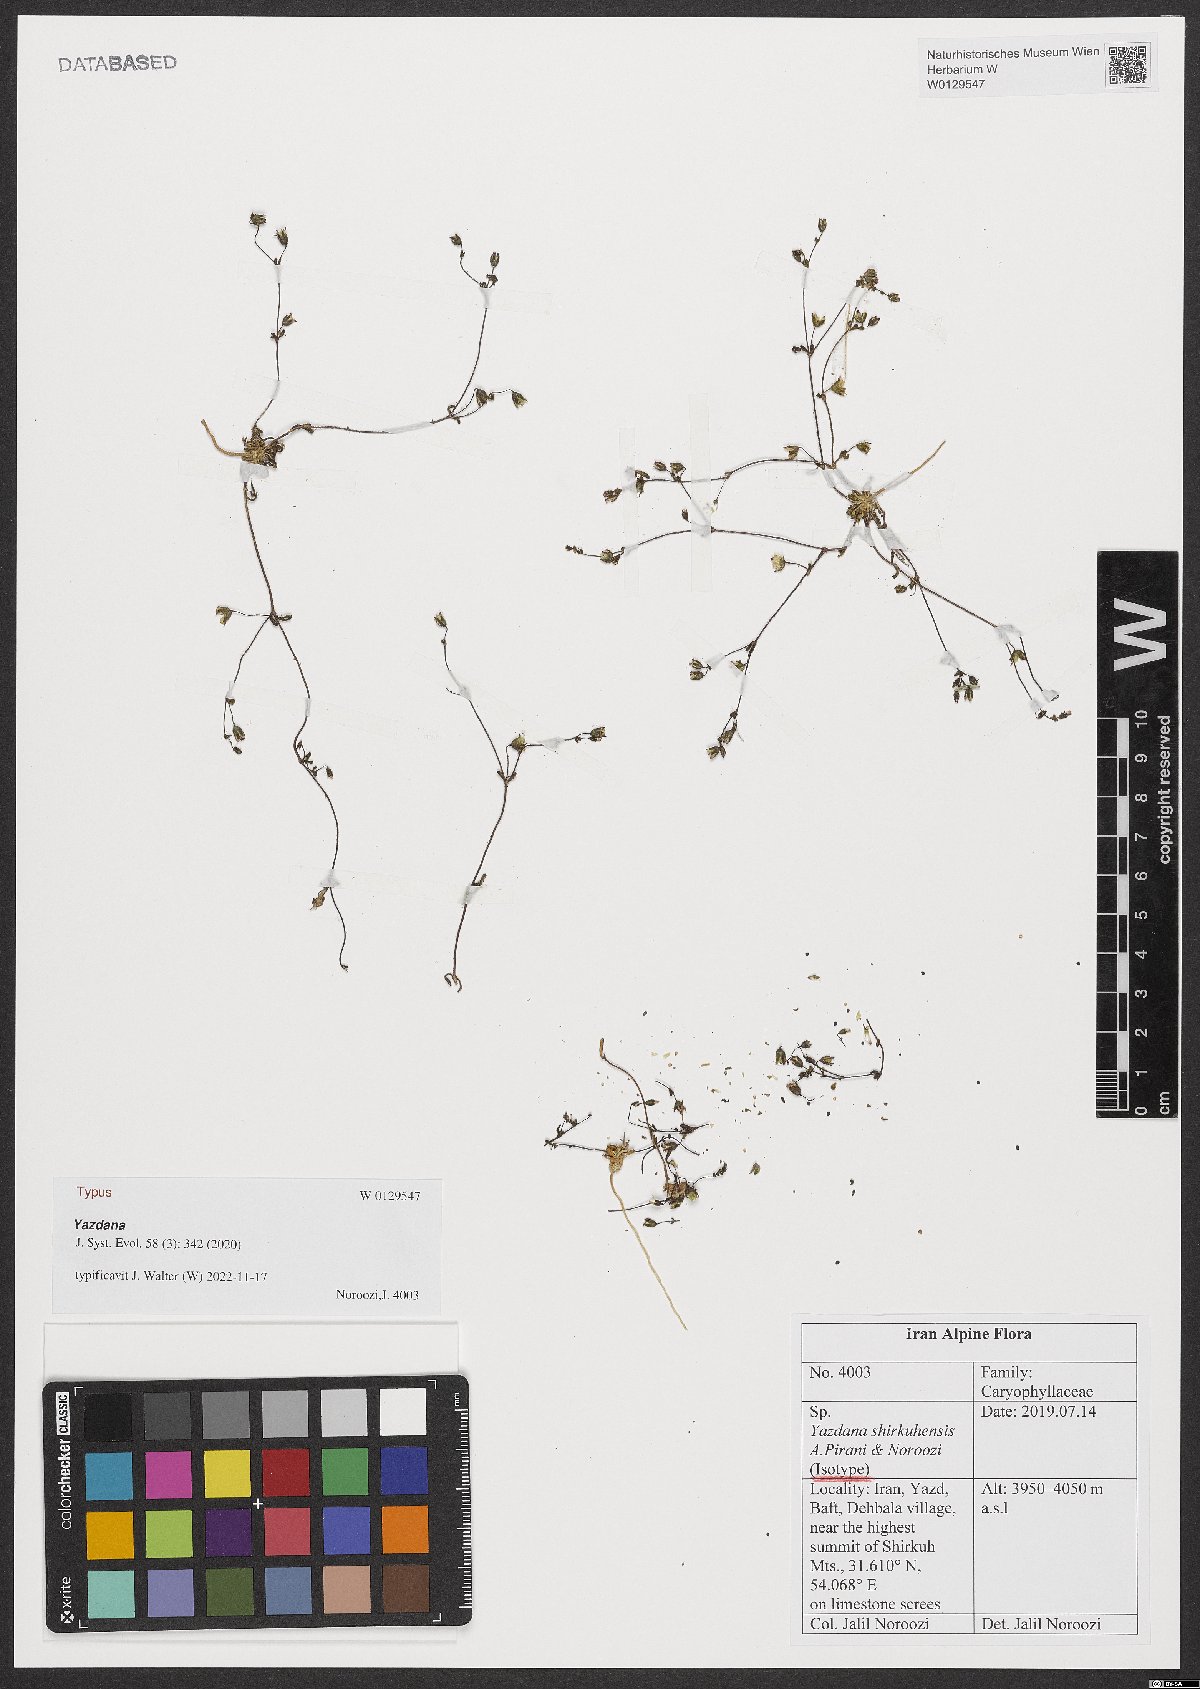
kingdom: Plantae
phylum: Tracheophyta
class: Magnoliopsida
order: Caryophyllales
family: Caryophyllaceae
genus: Yazdana
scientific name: Yazdana shirkuhensis
